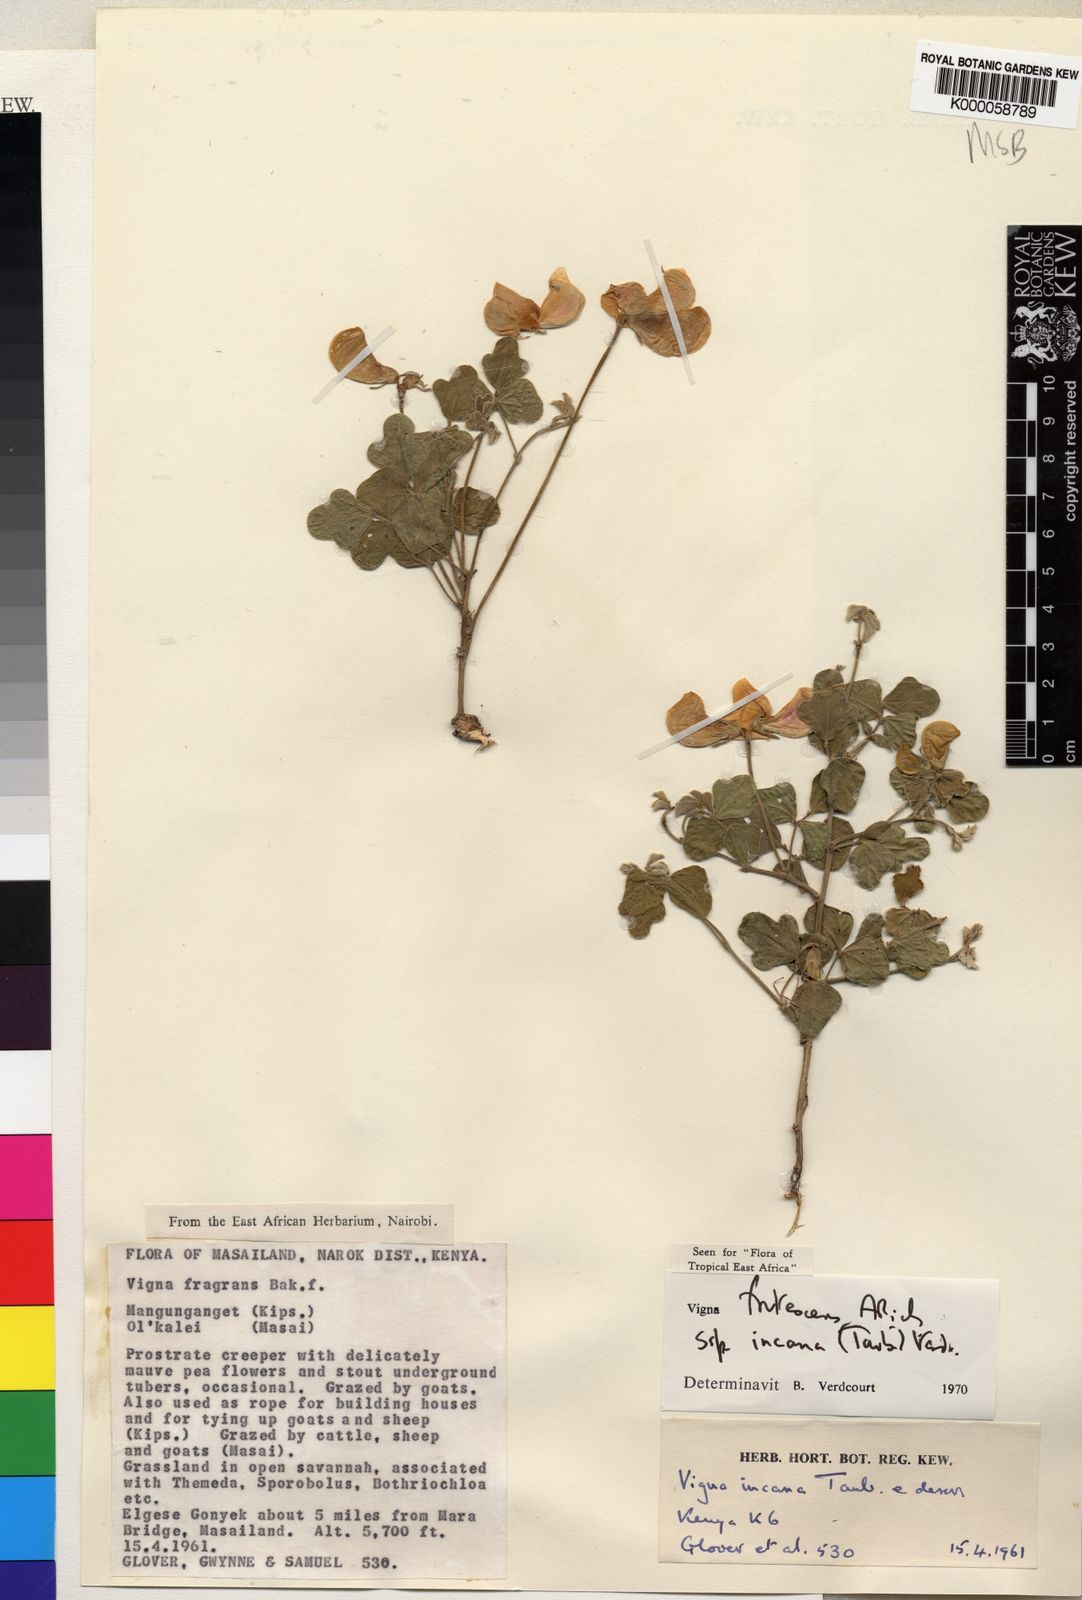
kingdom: Plantae
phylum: Tracheophyta
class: Magnoliopsida
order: Fabales
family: Fabaceae
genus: Vigna
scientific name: Vigna frutescens
